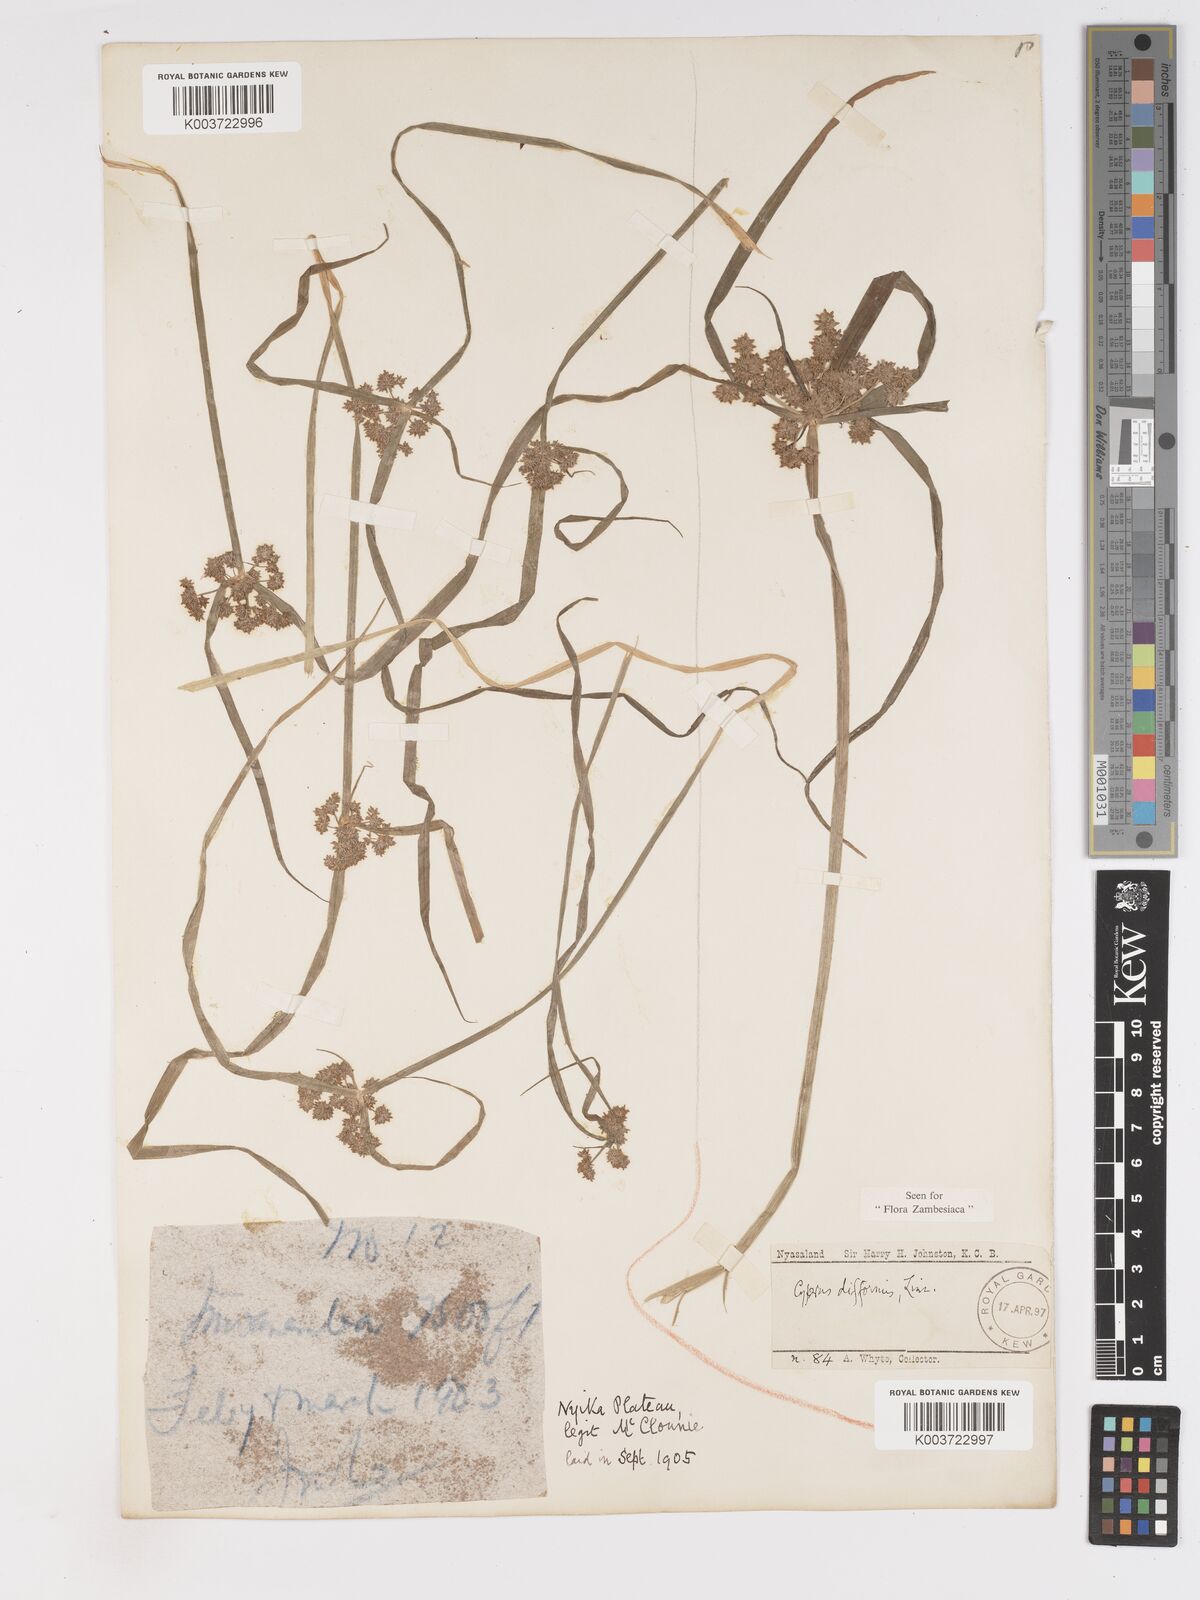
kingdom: Plantae
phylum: Tracheophyta
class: Liliopsida
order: Poales
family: Cyperaceae
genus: Cyperus
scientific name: Cyperus difformis
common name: Variable flatsedge
